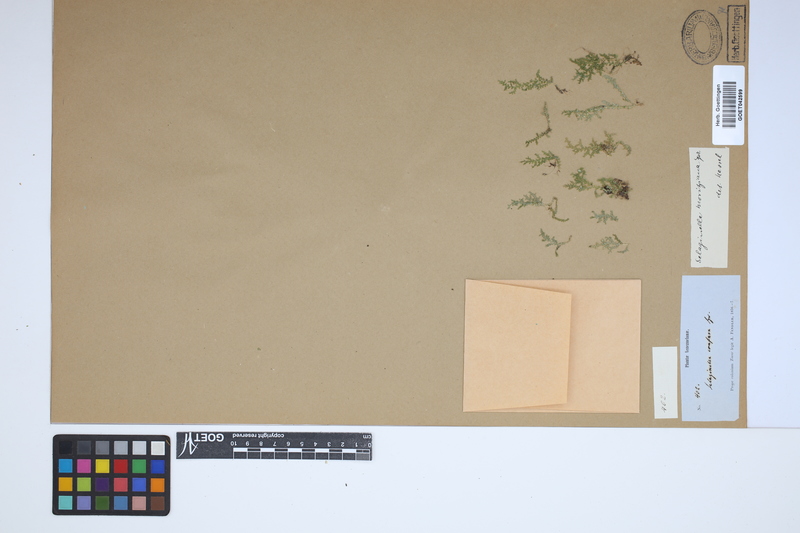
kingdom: Plantae
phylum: Tracheophyta
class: Lycopodiopsida
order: Selaginellales
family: Selaginellaceae
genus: Selaginella
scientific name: Selaginella moritziana
